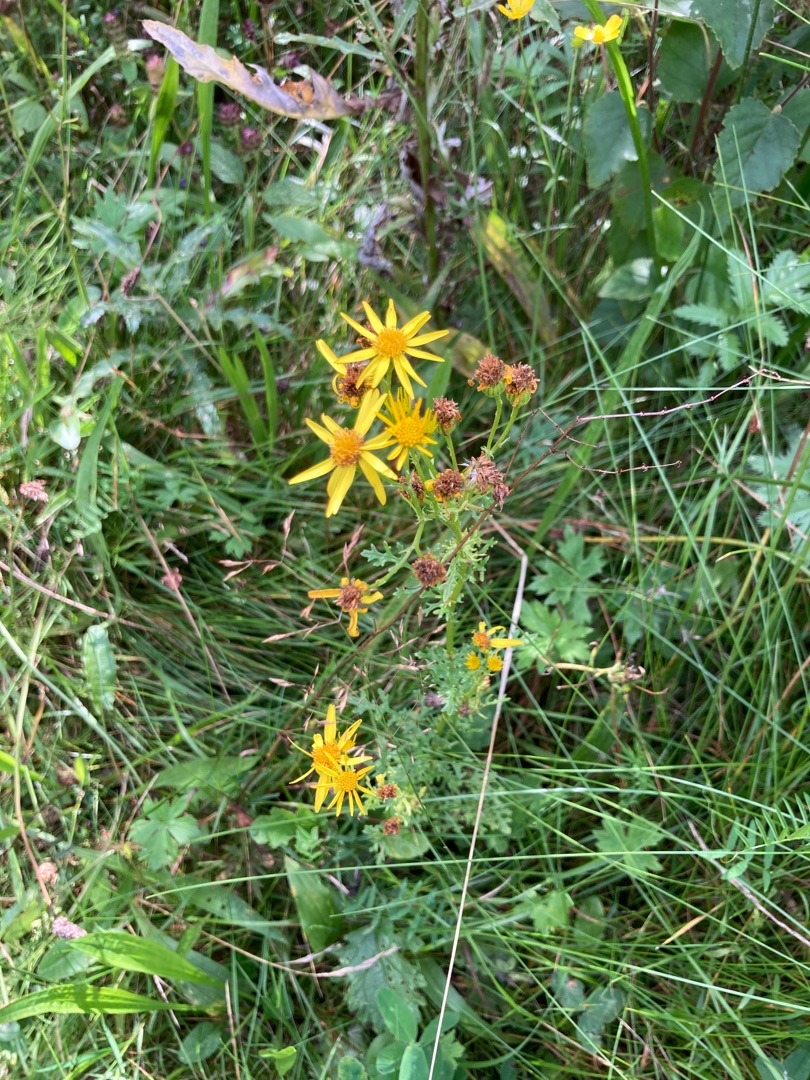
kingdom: Plantae
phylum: Tracheophyta
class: Magnoliopsida
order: Asterales
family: Asteraceae
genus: Jacobaea
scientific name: Jacobaea vulgaris
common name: Eng-brandbæger
